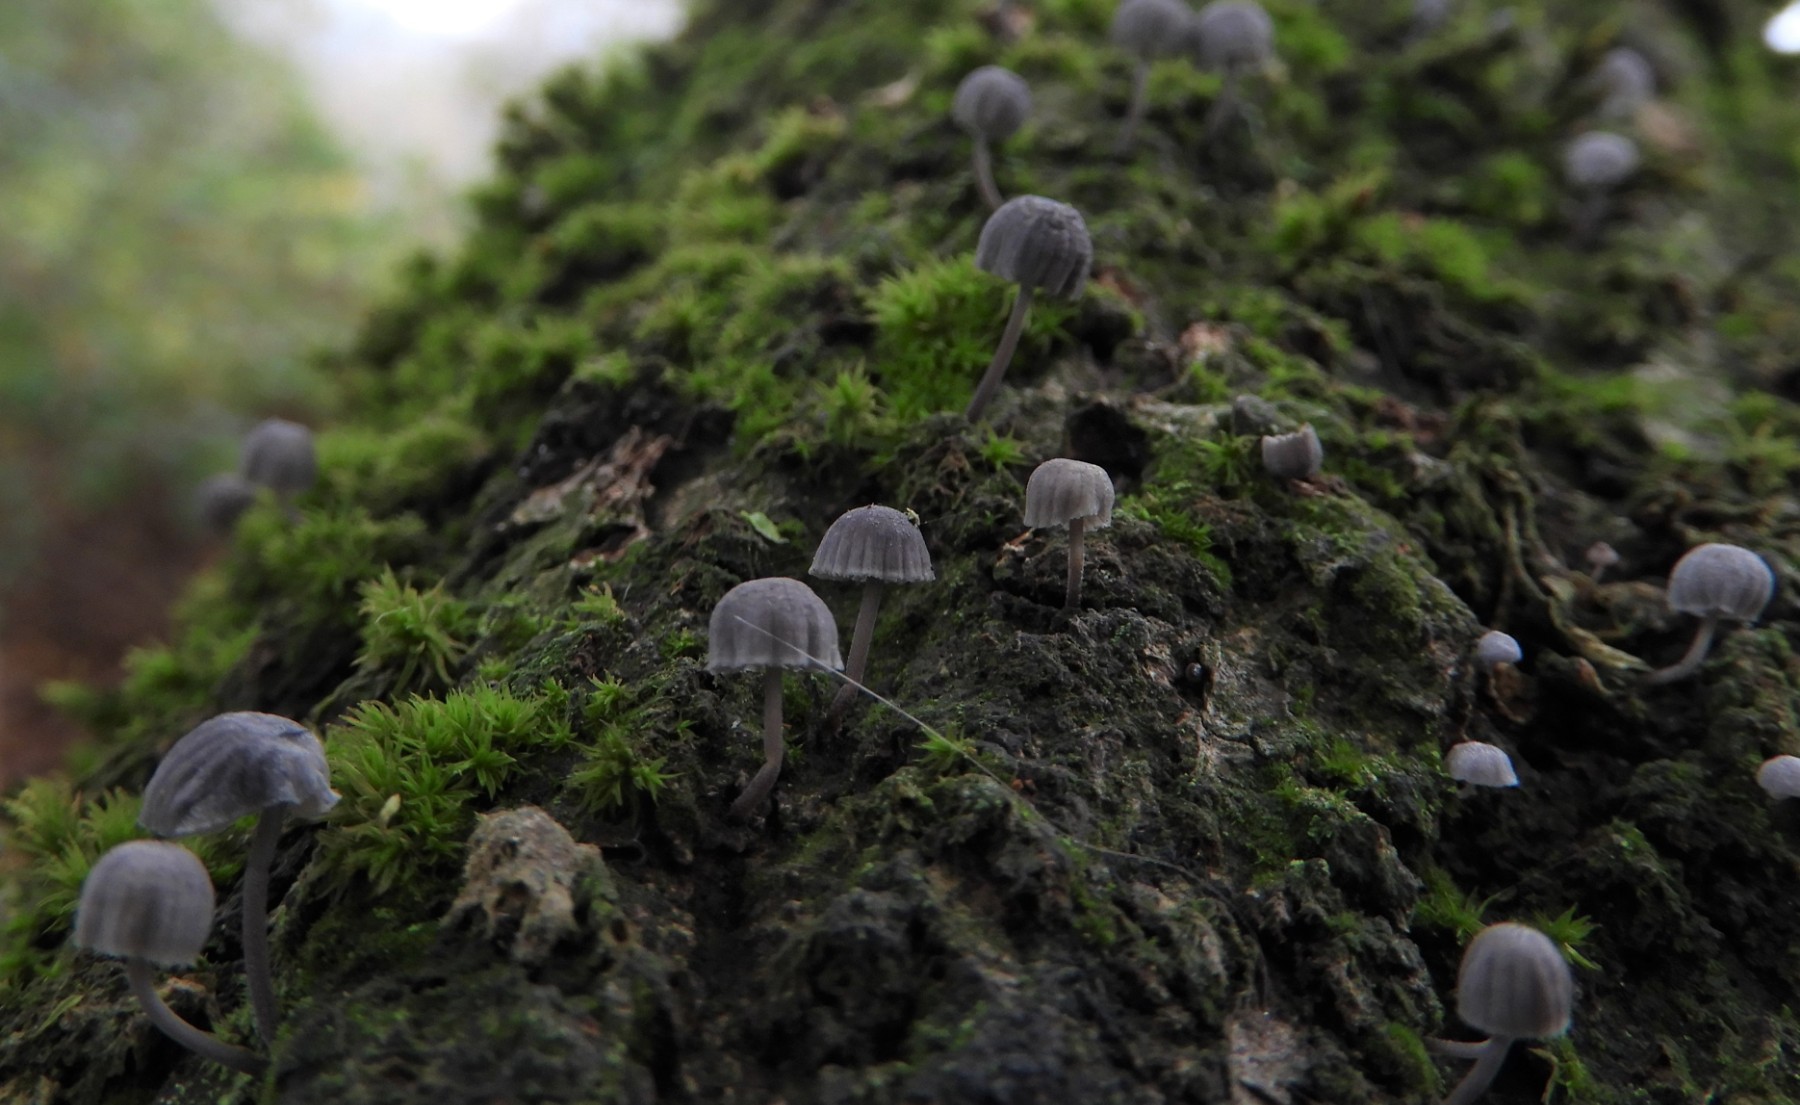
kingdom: Fungi
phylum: Basidiomycota
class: Agaricomycetes
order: Agaricales
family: Mycenaceae
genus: Mycena
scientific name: Mycena pseudocorticola
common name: gråblå bark-huesvamp
